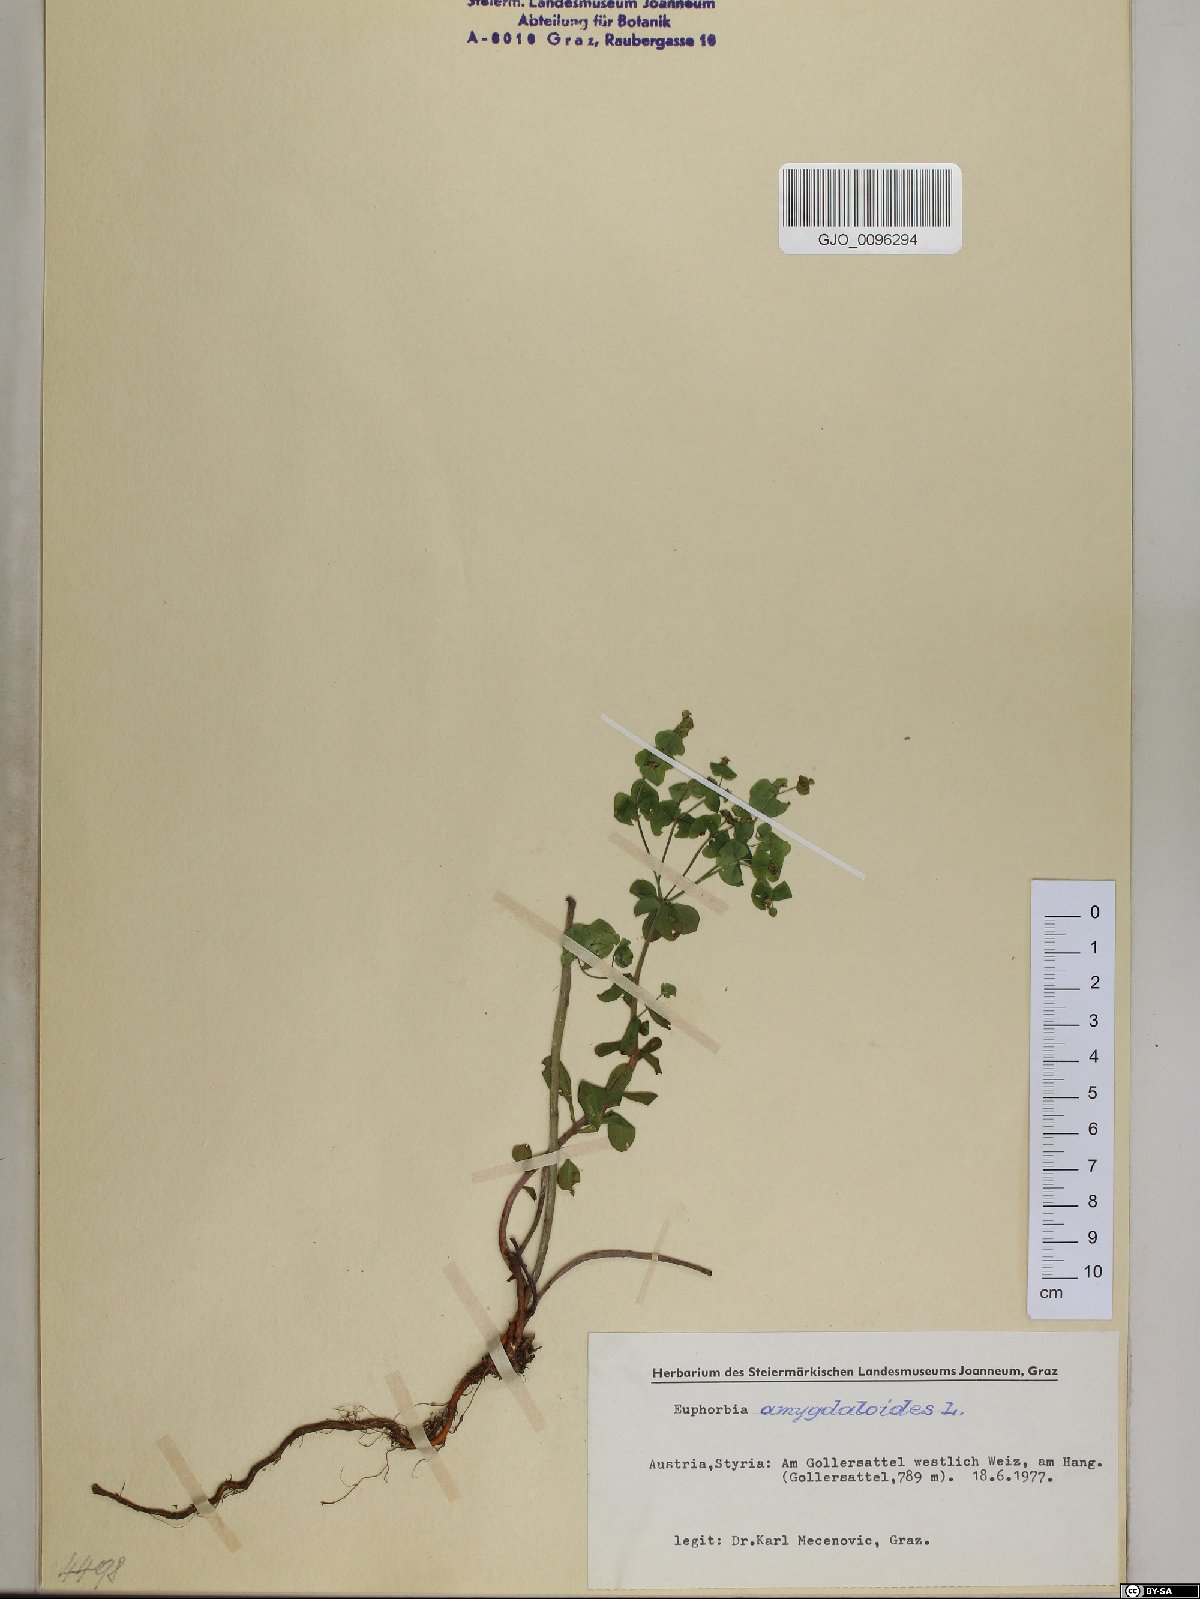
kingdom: Plantae
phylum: Tracheophyta
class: Magnoliopsida
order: Malpighiales
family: Euphorbiaceae
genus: Euphorbia
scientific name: Euphorbia amygdaloides
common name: Wood spurge
